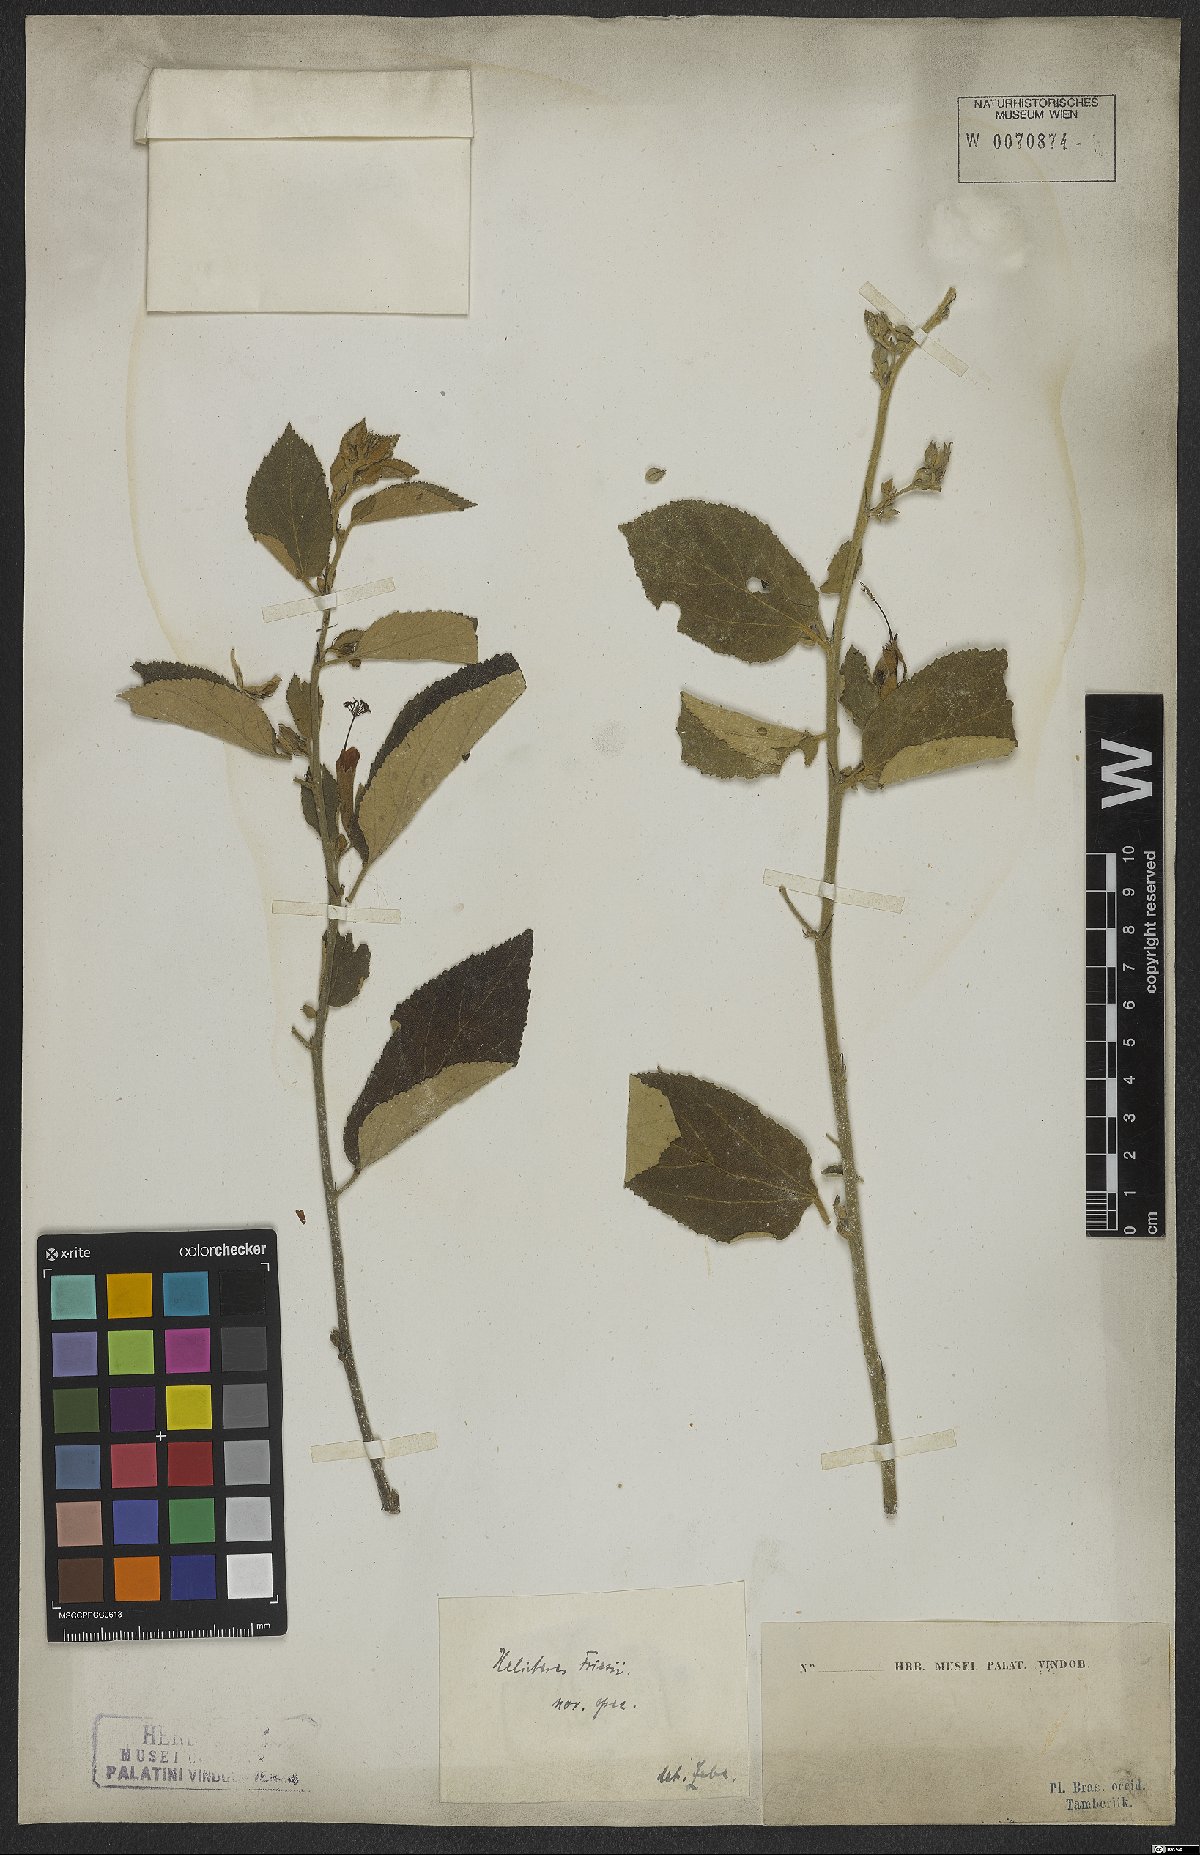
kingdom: Plantae
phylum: Tracheophyta
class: Magnoliopsida
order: Malvales
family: Malvaceae
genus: Helicteres
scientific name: Helicteres friesii
